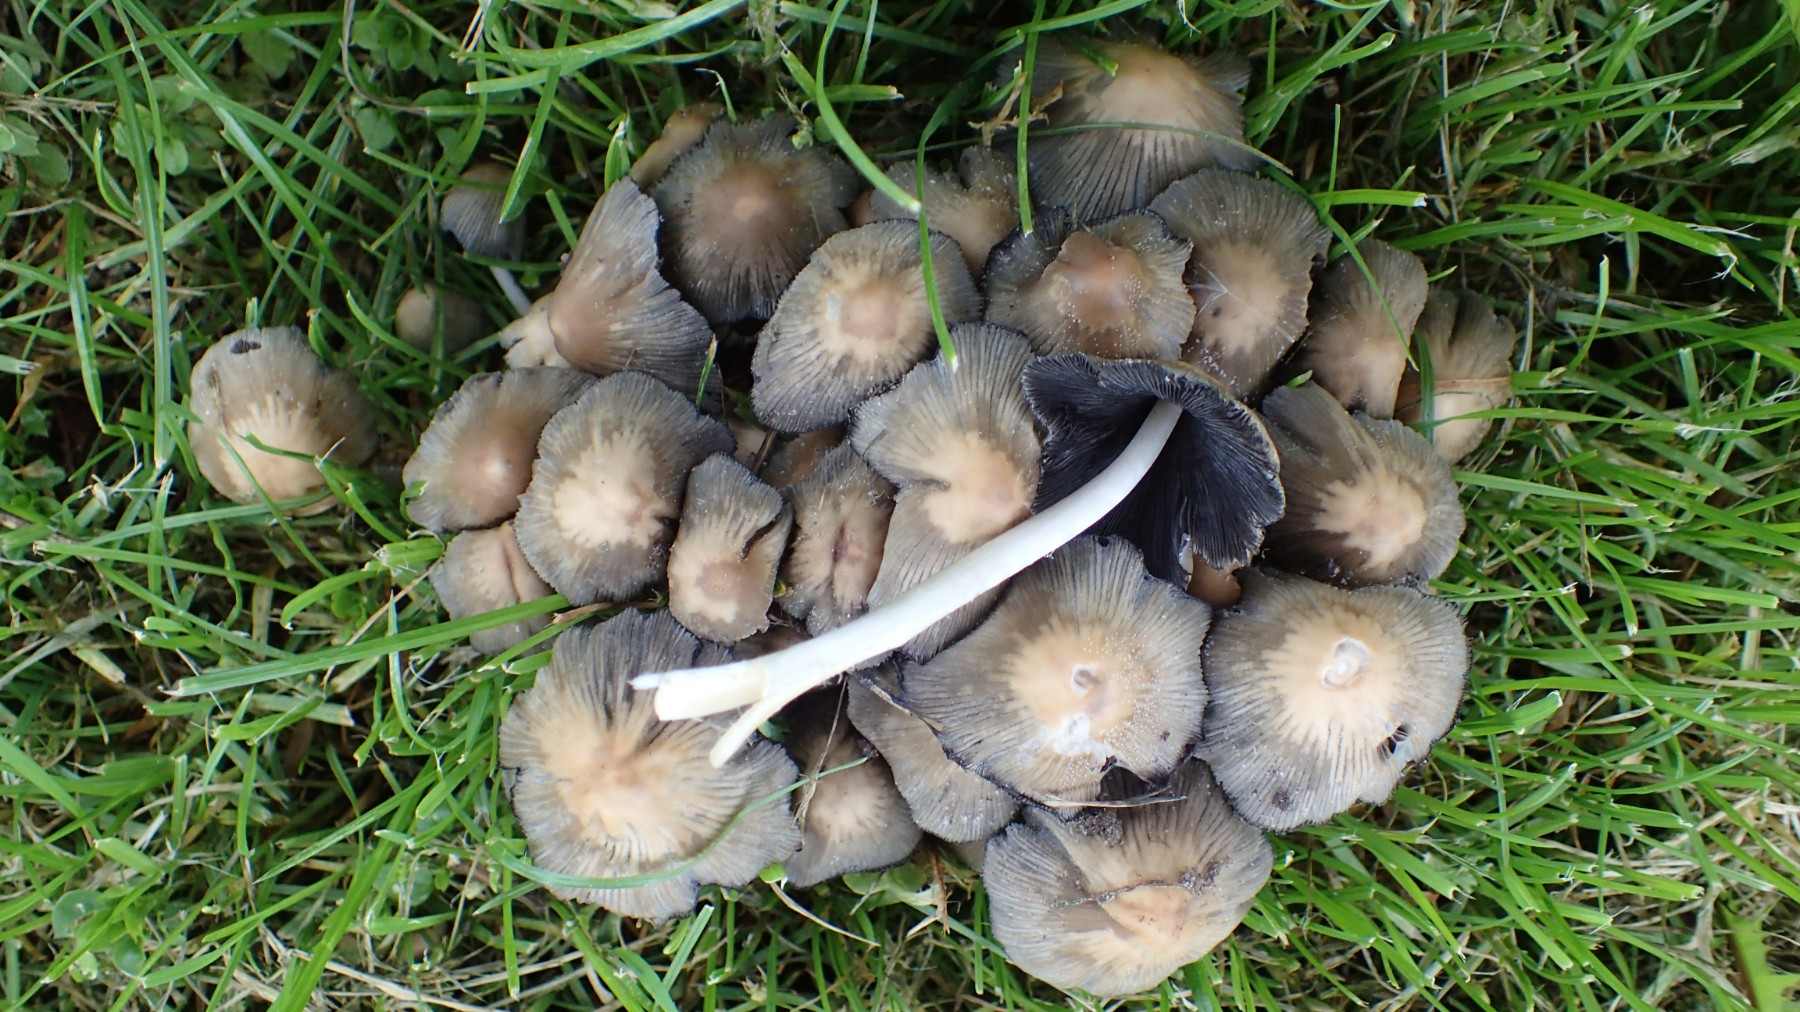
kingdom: Fungi
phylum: Basidiomycota
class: Agaricomycetes
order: Agaricales
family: Psathyrellaceae
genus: Coprinellus
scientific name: Coprinellus micaceus
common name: glimmer-blækhat
